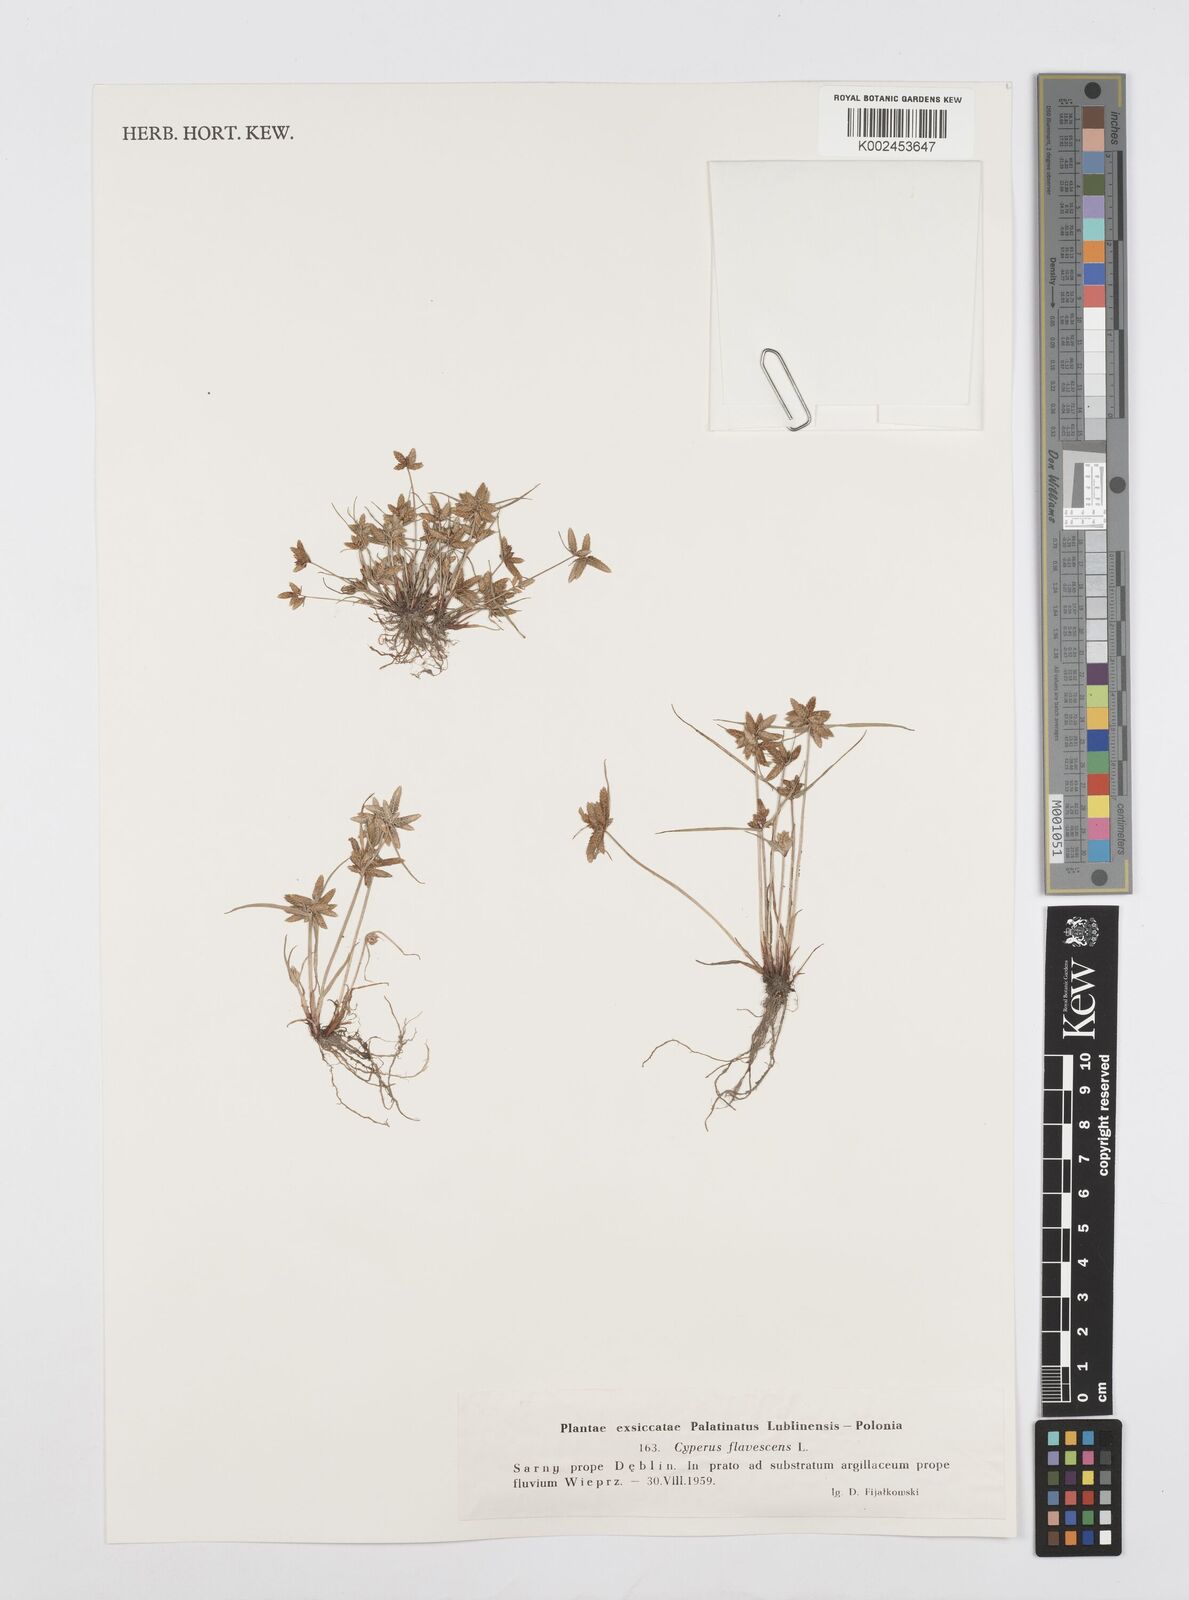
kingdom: Plantae
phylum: Tracheophyta
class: Liliopsida
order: Poales
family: Cyperaceae
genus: Cyperus
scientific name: Cyperus flavescens
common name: Yellow galingale
